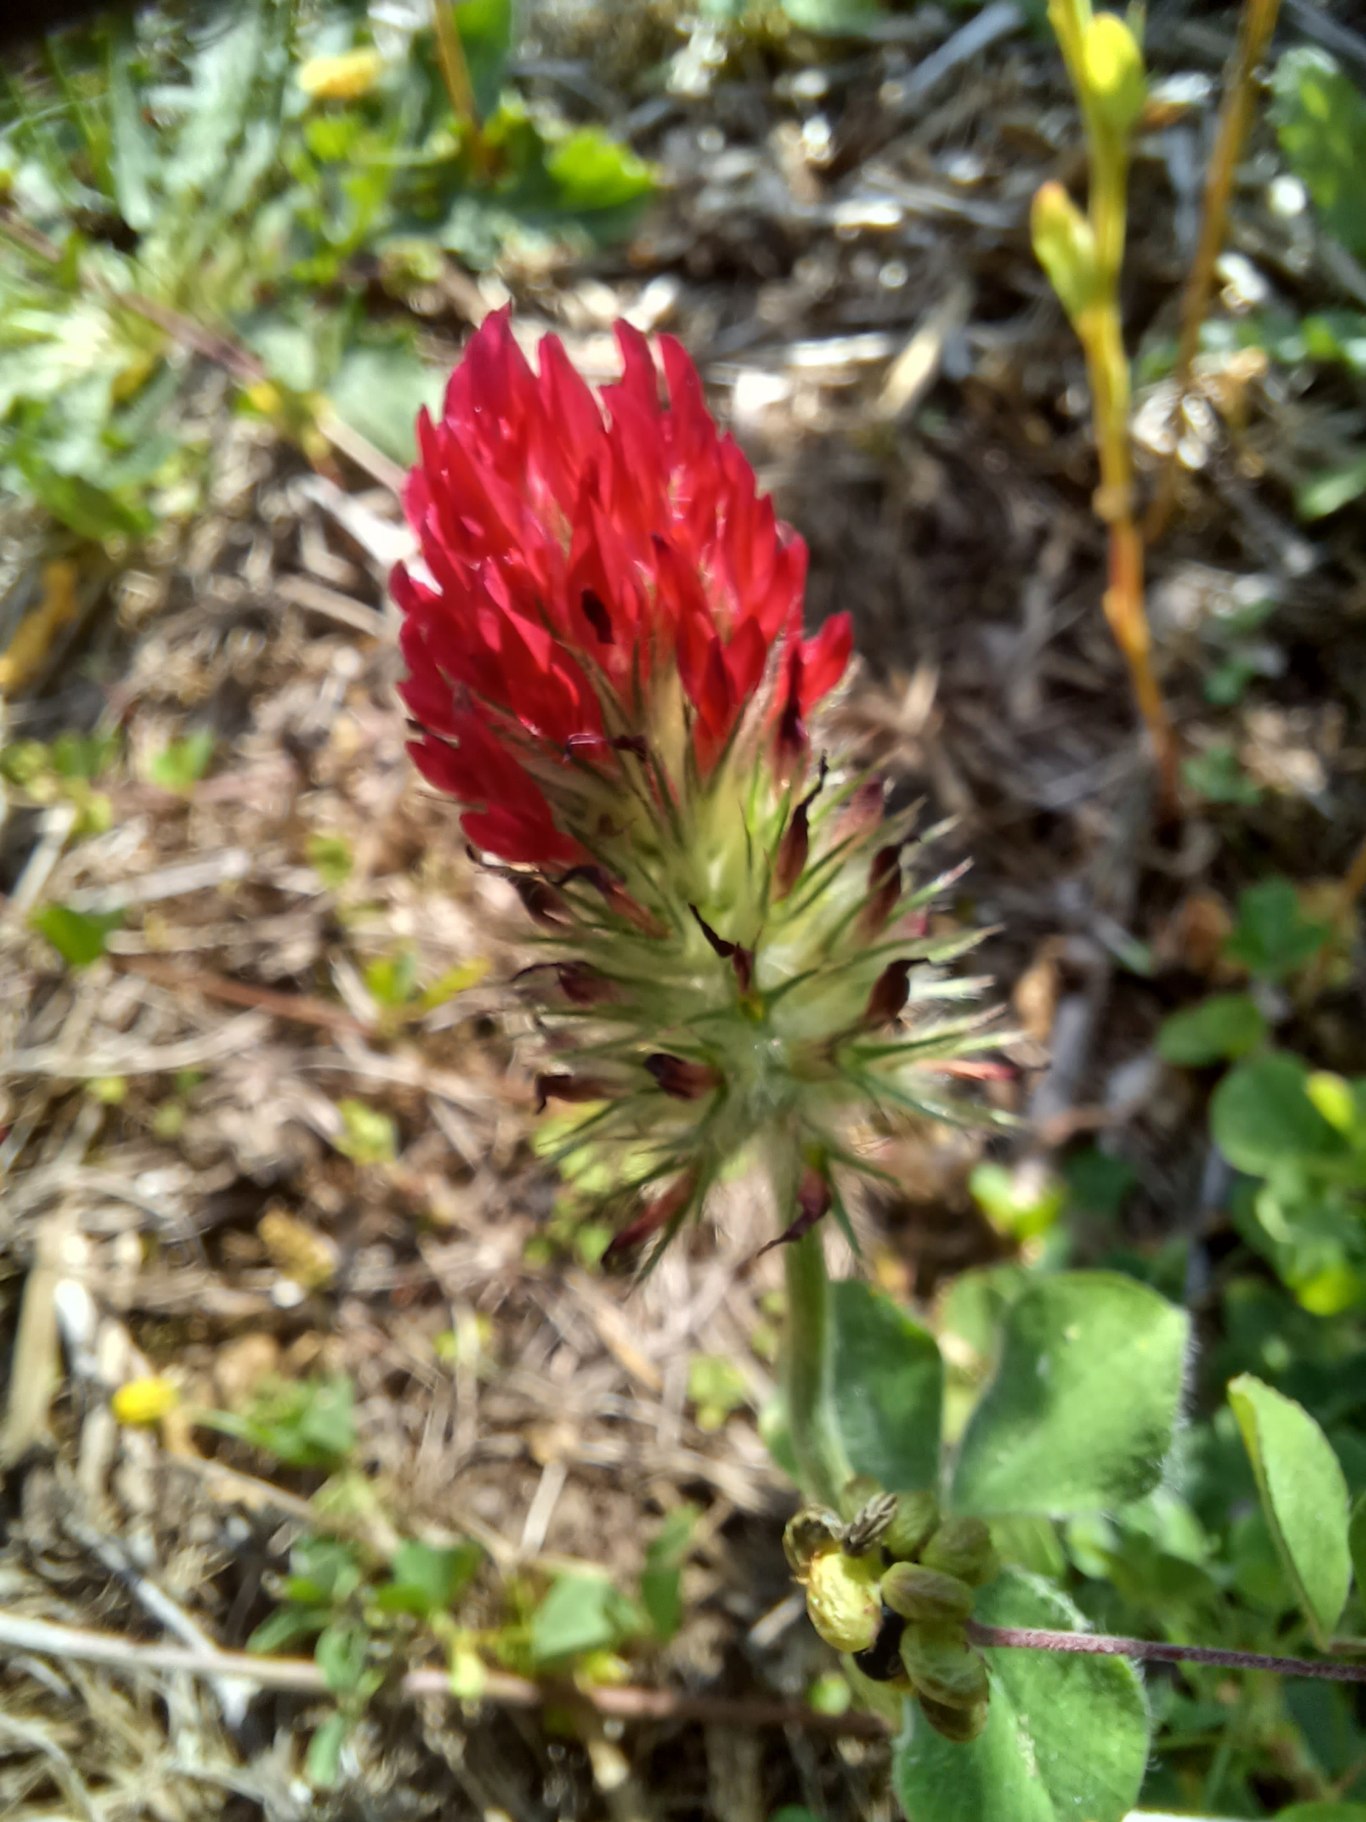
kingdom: Plantae
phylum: Tracheophyta
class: Magnoliopsida
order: Fabales
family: Fabaceae
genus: Trifolium
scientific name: Trifolium incarnatum
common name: Blod-kløver
